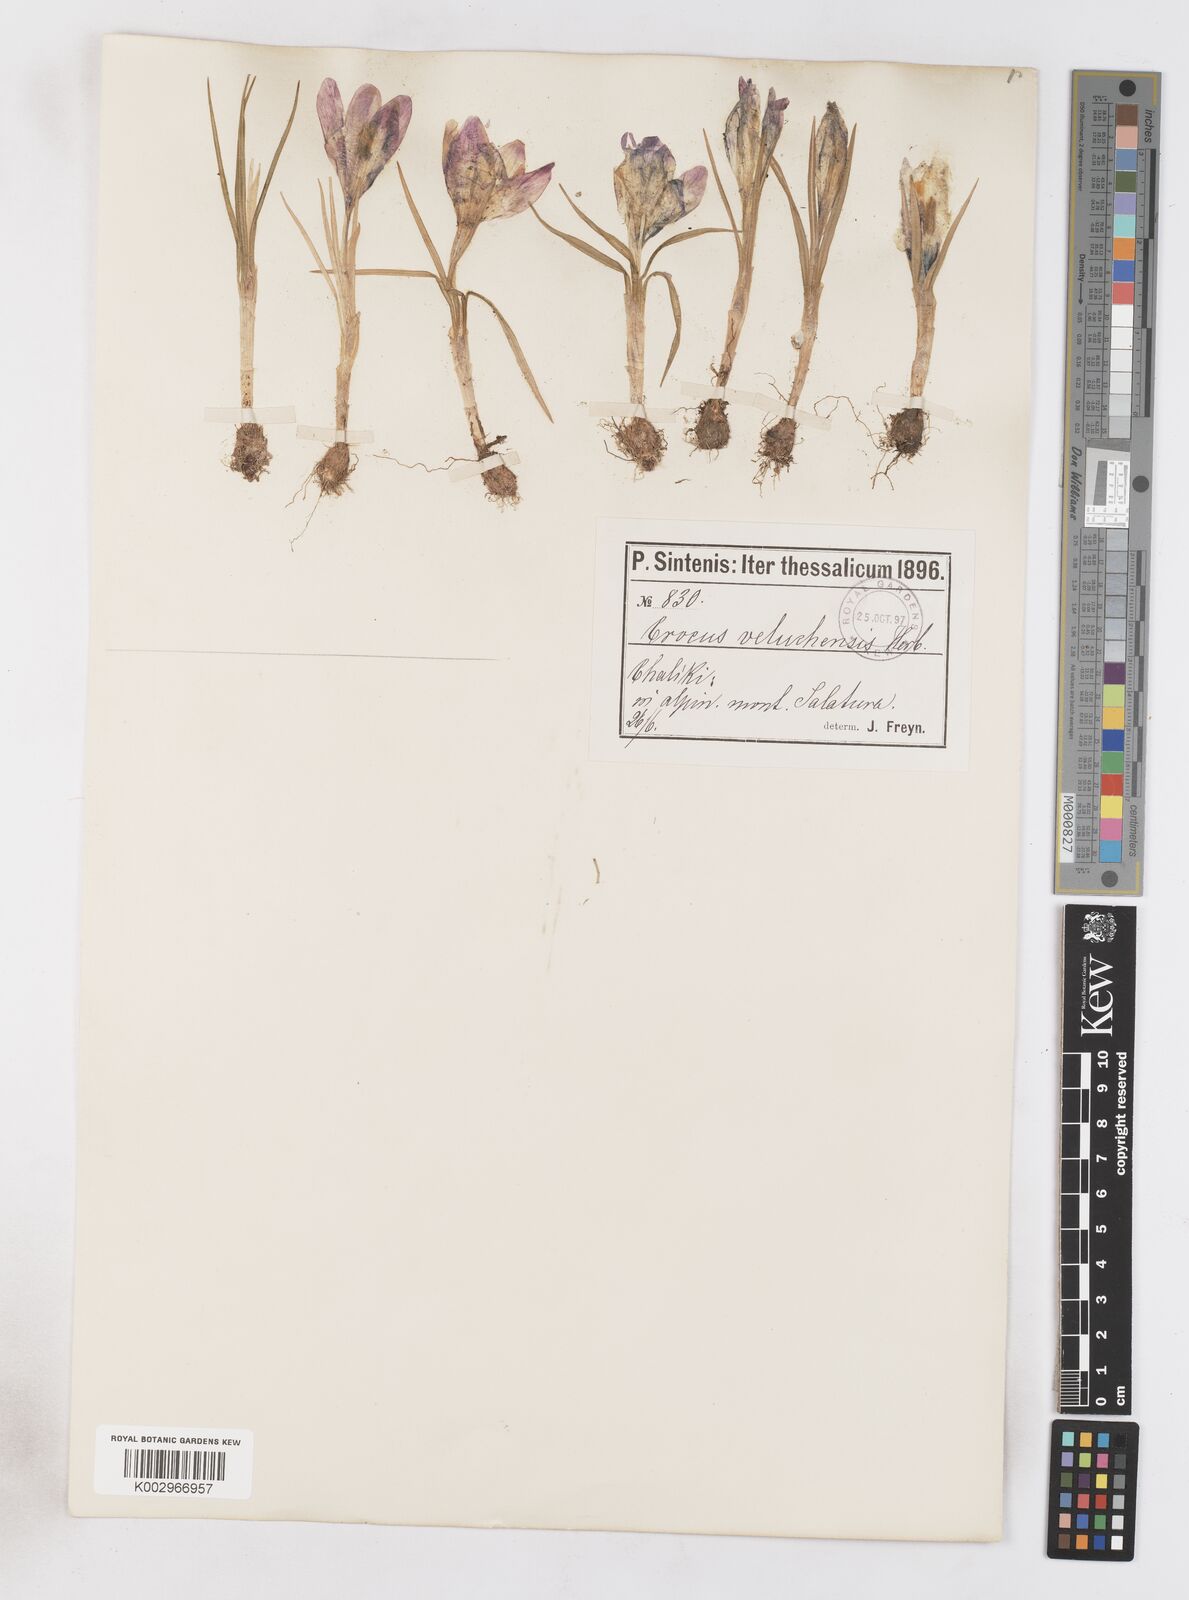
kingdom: Plantae
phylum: Tracheophyta
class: Liliopsida
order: Asparagales
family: Iridaceae
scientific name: Iridaceae
